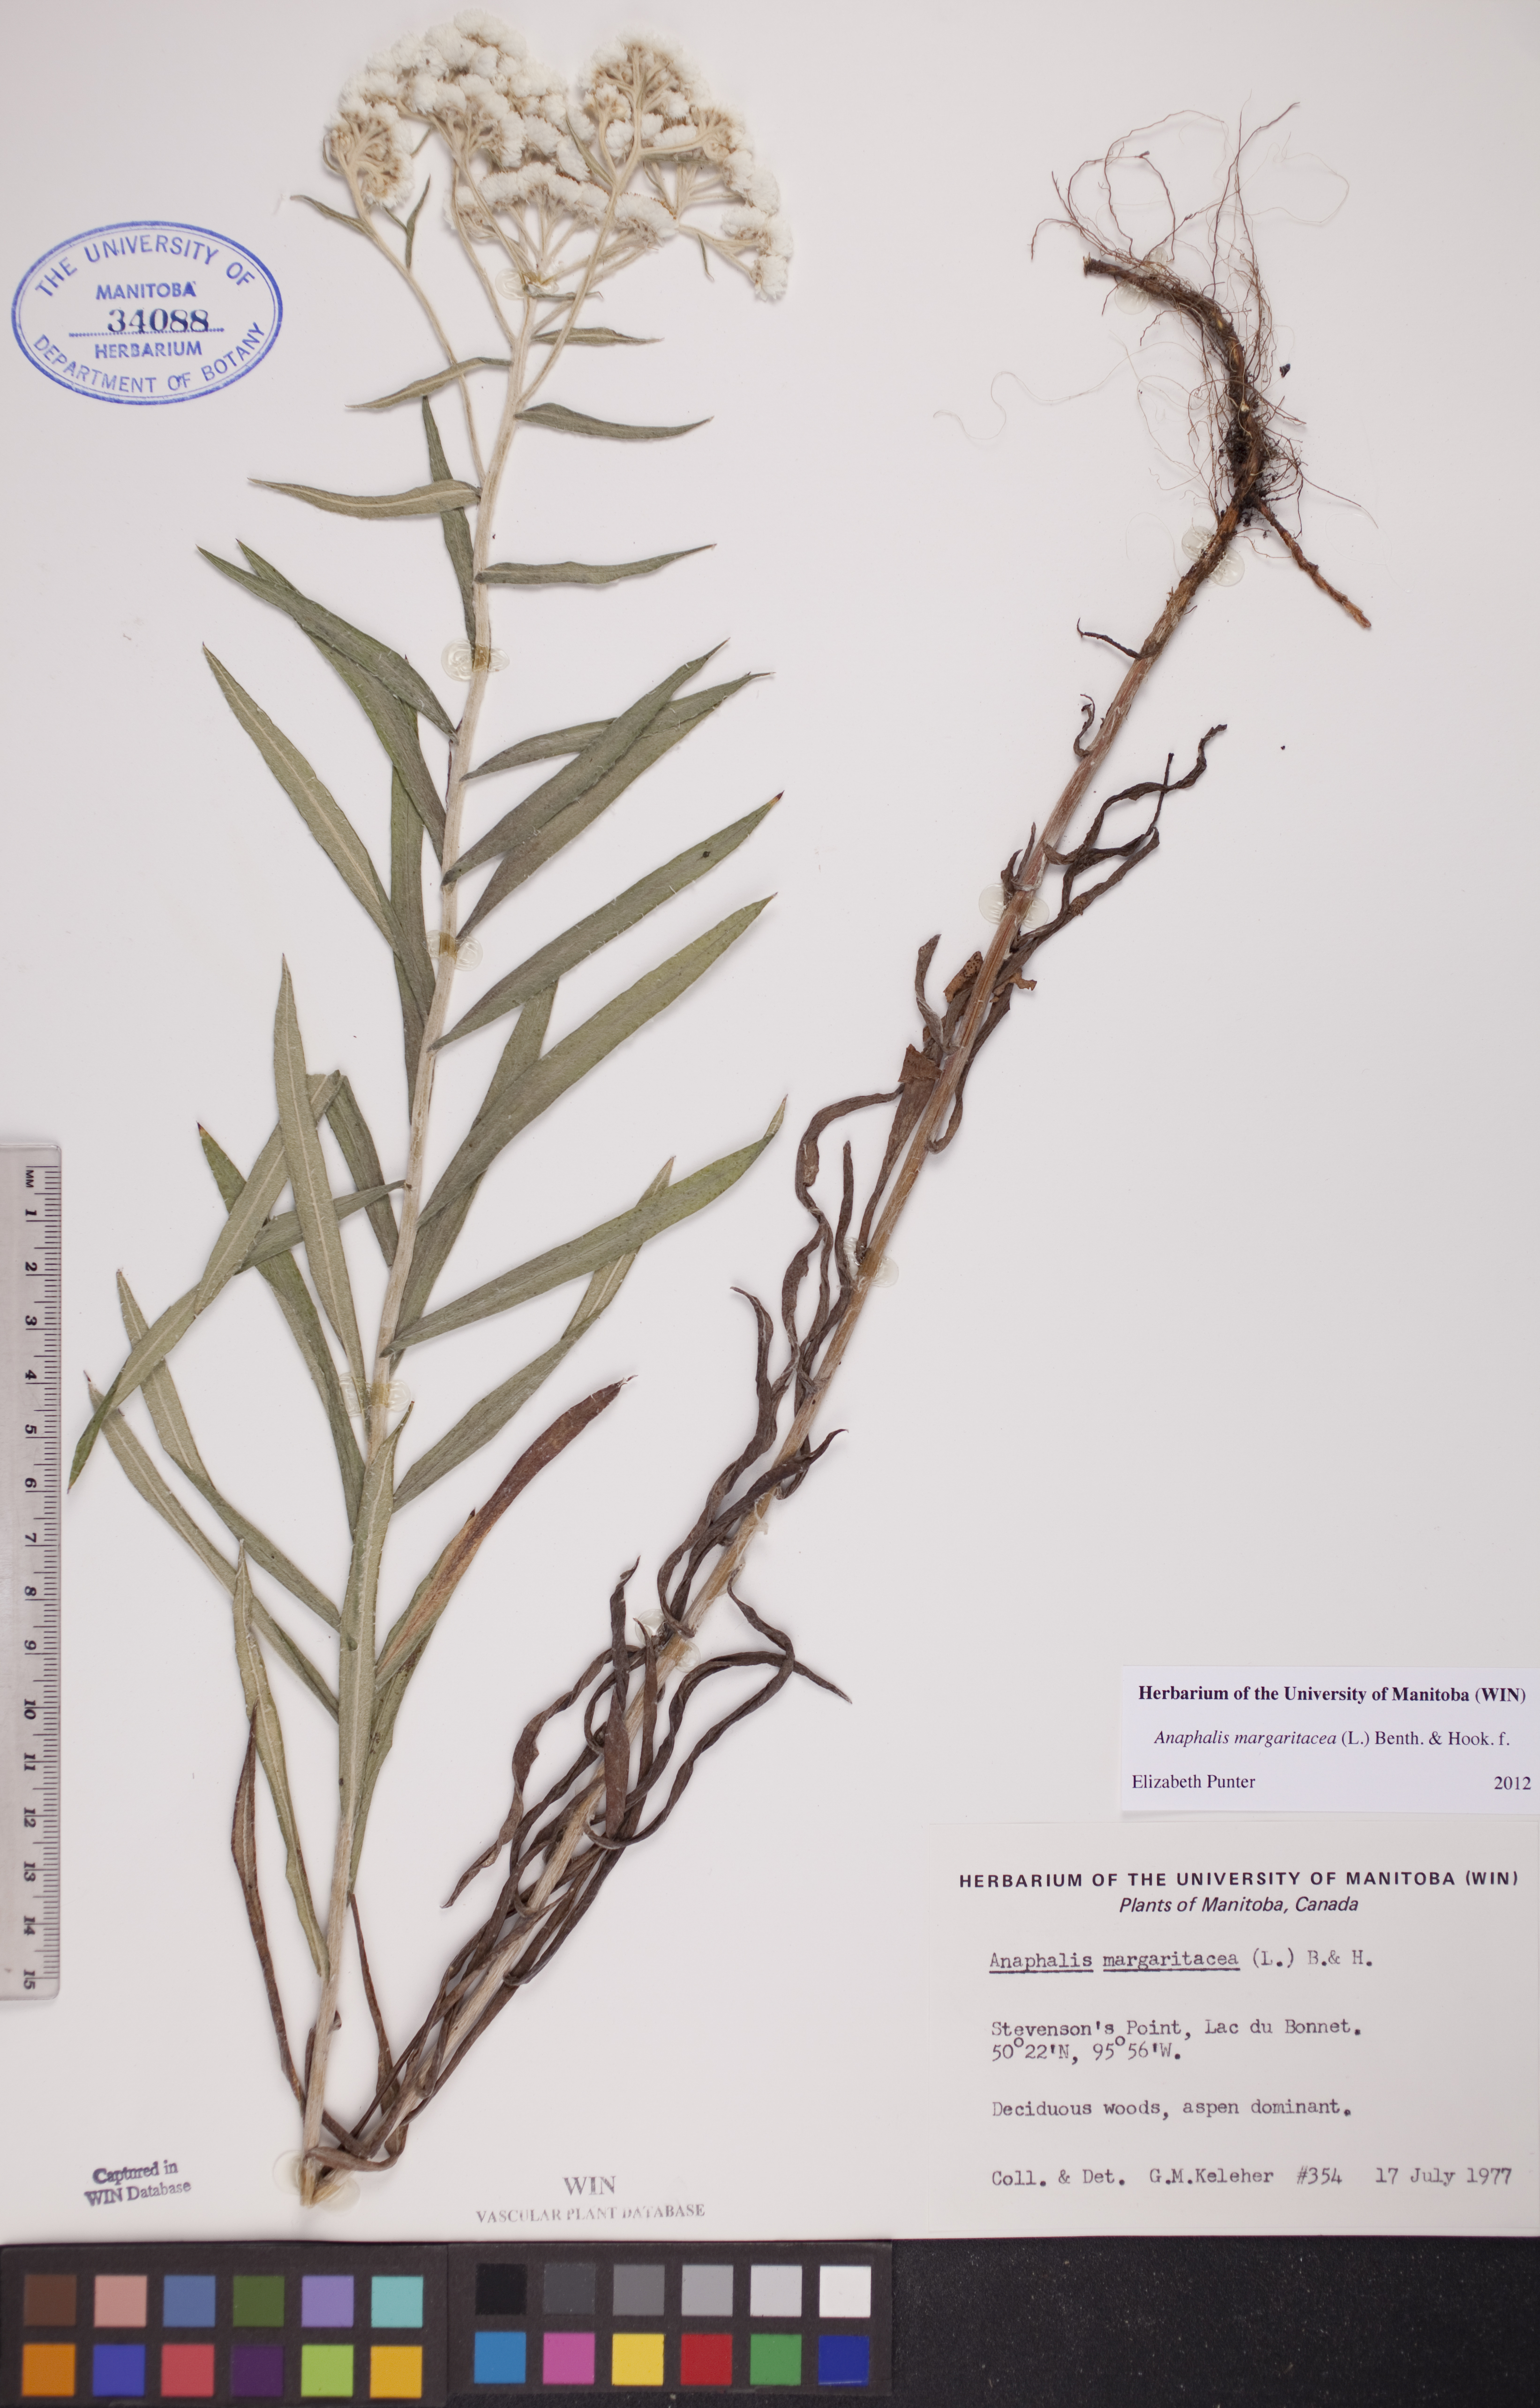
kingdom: Plantae
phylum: Tracheophyta
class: Magnoliopsida
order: Asterales
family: Asteraceae
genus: Anaphalis
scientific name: Anaphalis margaritacea
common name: Pearly everlasting
